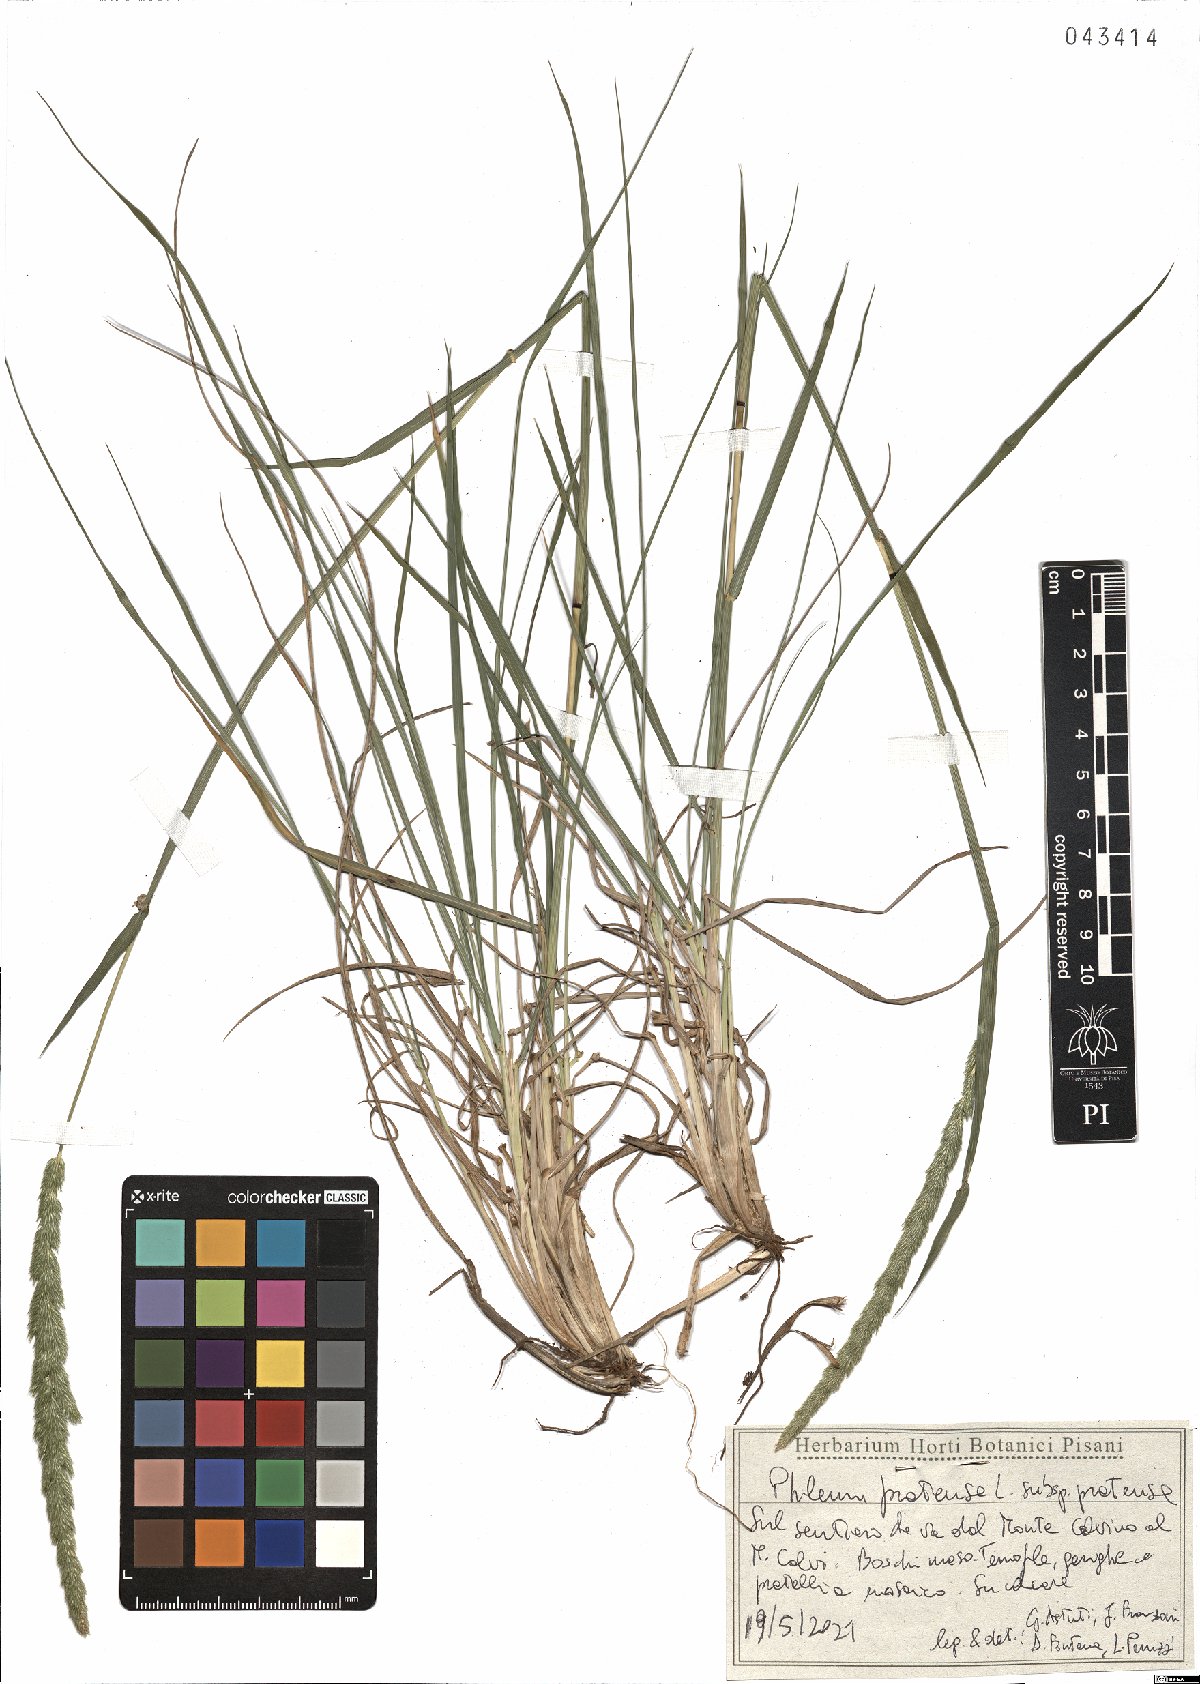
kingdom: Plantae
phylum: Tracheophyta
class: Liliopsida
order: Poales
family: Poaceae
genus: Phleum
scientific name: Phleum pratense
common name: Timothy grass
